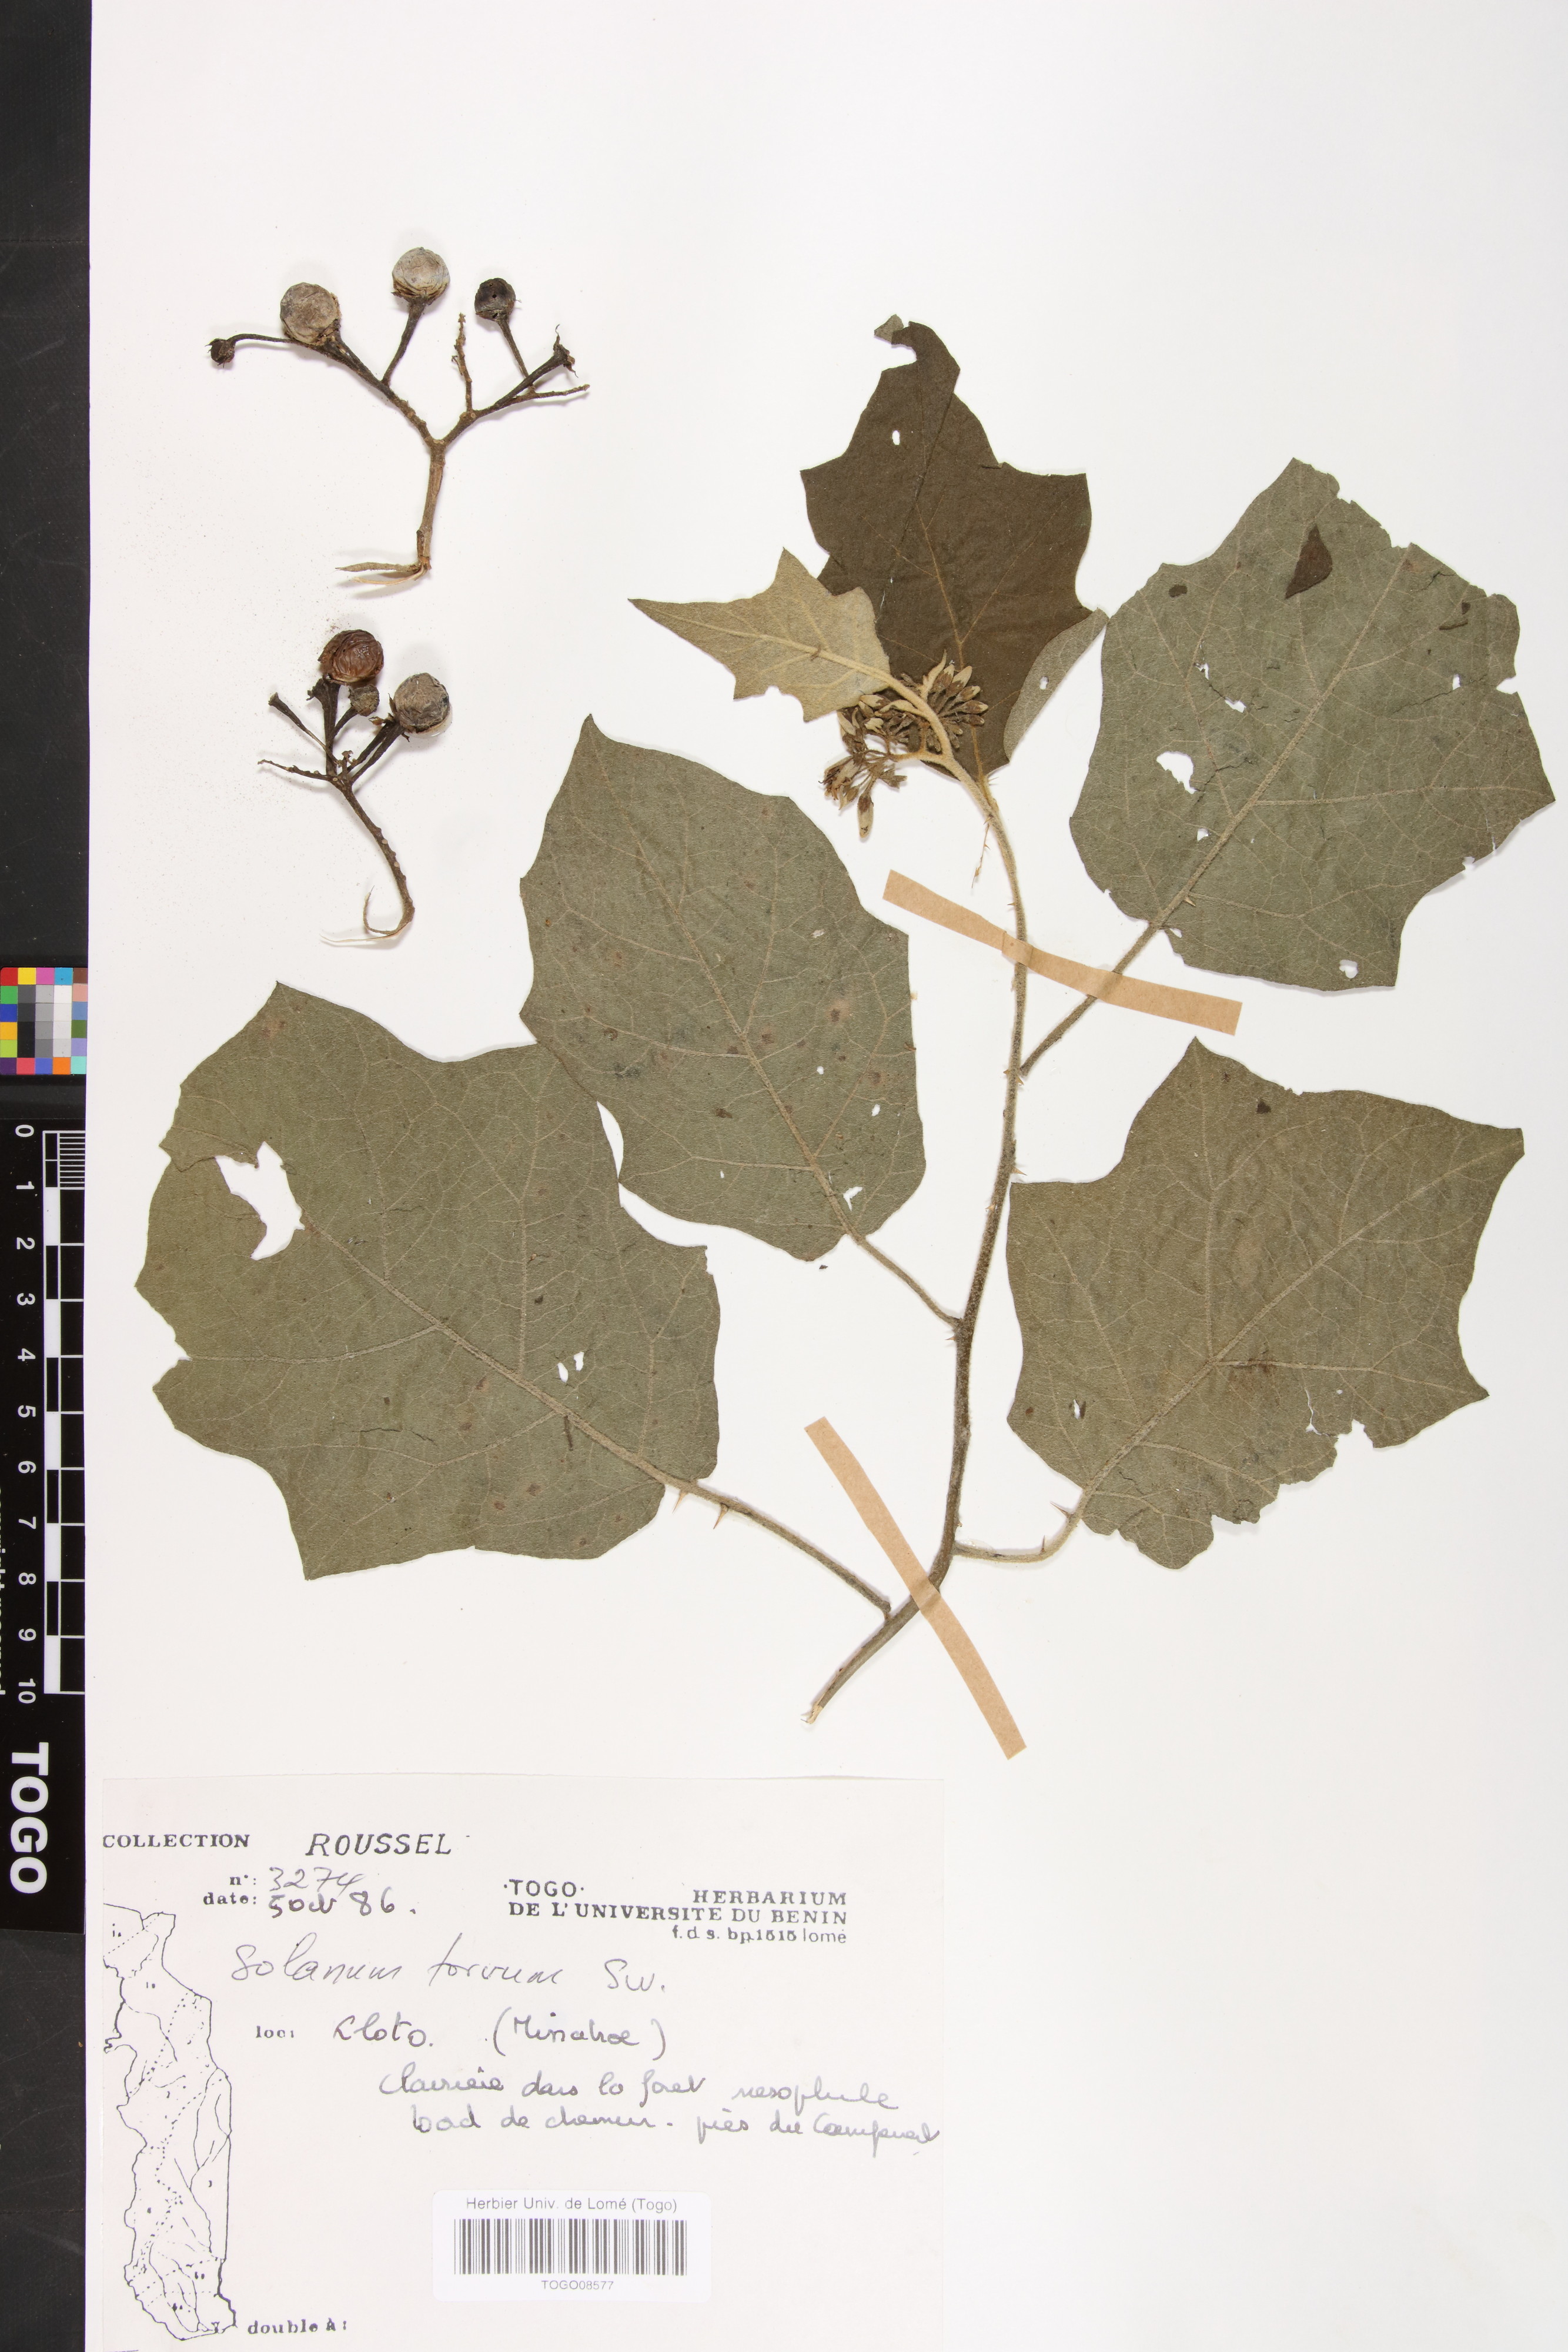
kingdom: Plantae
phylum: Tracheophyta
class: Magnoliopsida
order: Solanales
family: Solanaceae
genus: Solanum
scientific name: Solanum torvum
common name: Turkey berry
